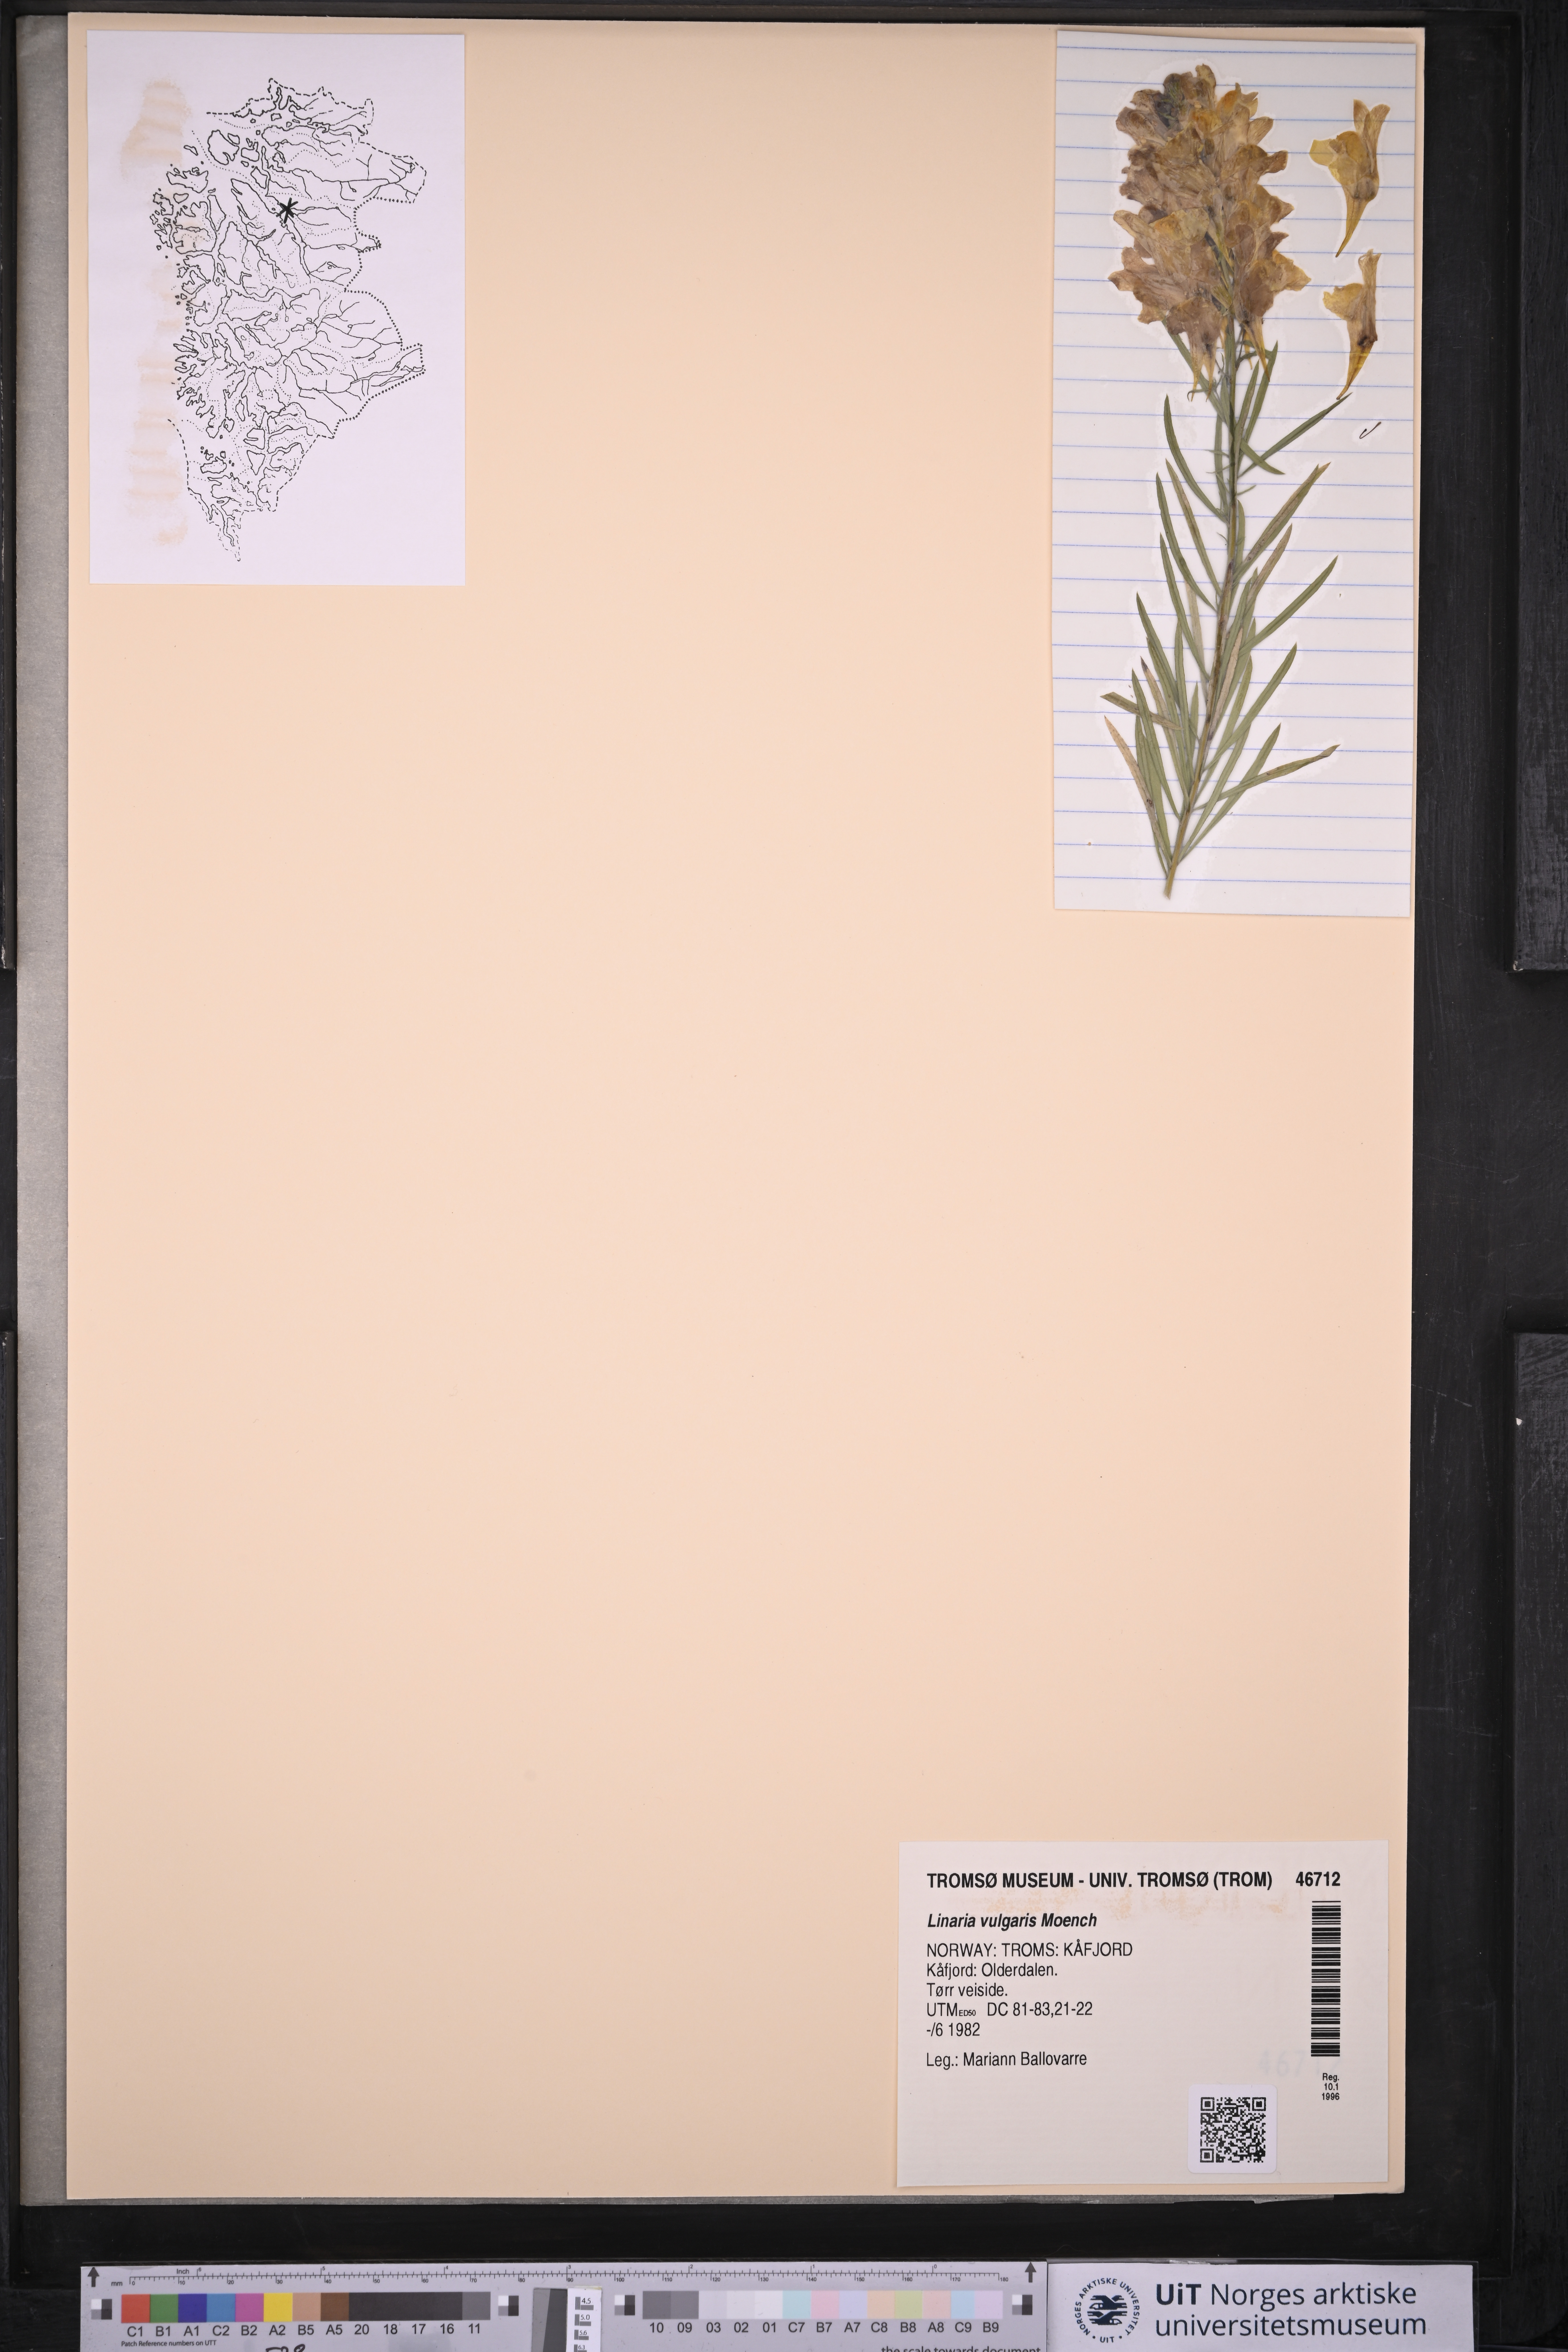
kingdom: Plantae
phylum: Tracheophyta
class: Magnoliopsida
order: Lamiales
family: Plantaginaceae
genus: Linaria
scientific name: Linaria vulgaris
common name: Butter and eggs
